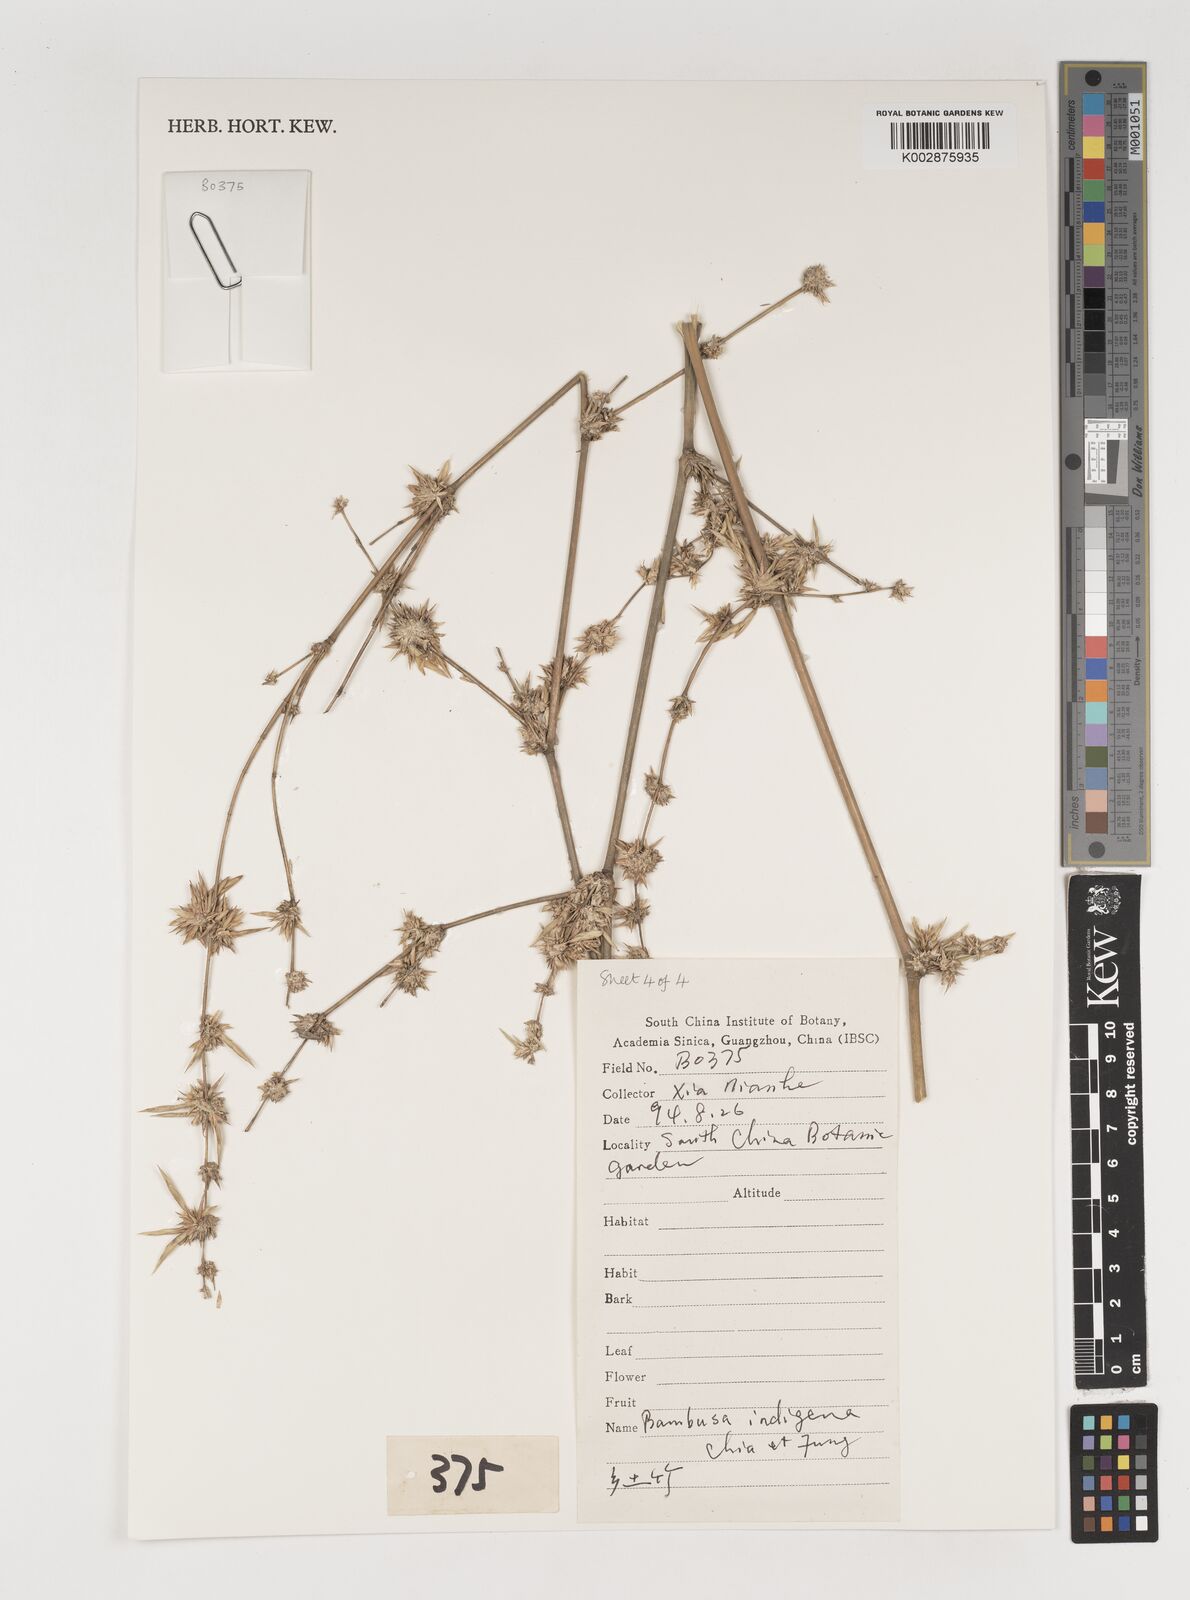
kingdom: Plantae
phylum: Tracheophyta
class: Liliopsida
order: Poales
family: Poaceae
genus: Bambusa
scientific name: Bambusa indigena
